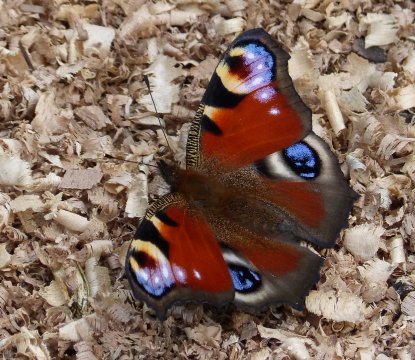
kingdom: Animalia
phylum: Arthropoda
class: Insecta
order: Lepidoptera
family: Nymphalidae
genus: Aglais
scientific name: Aglais io
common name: European Peacock
